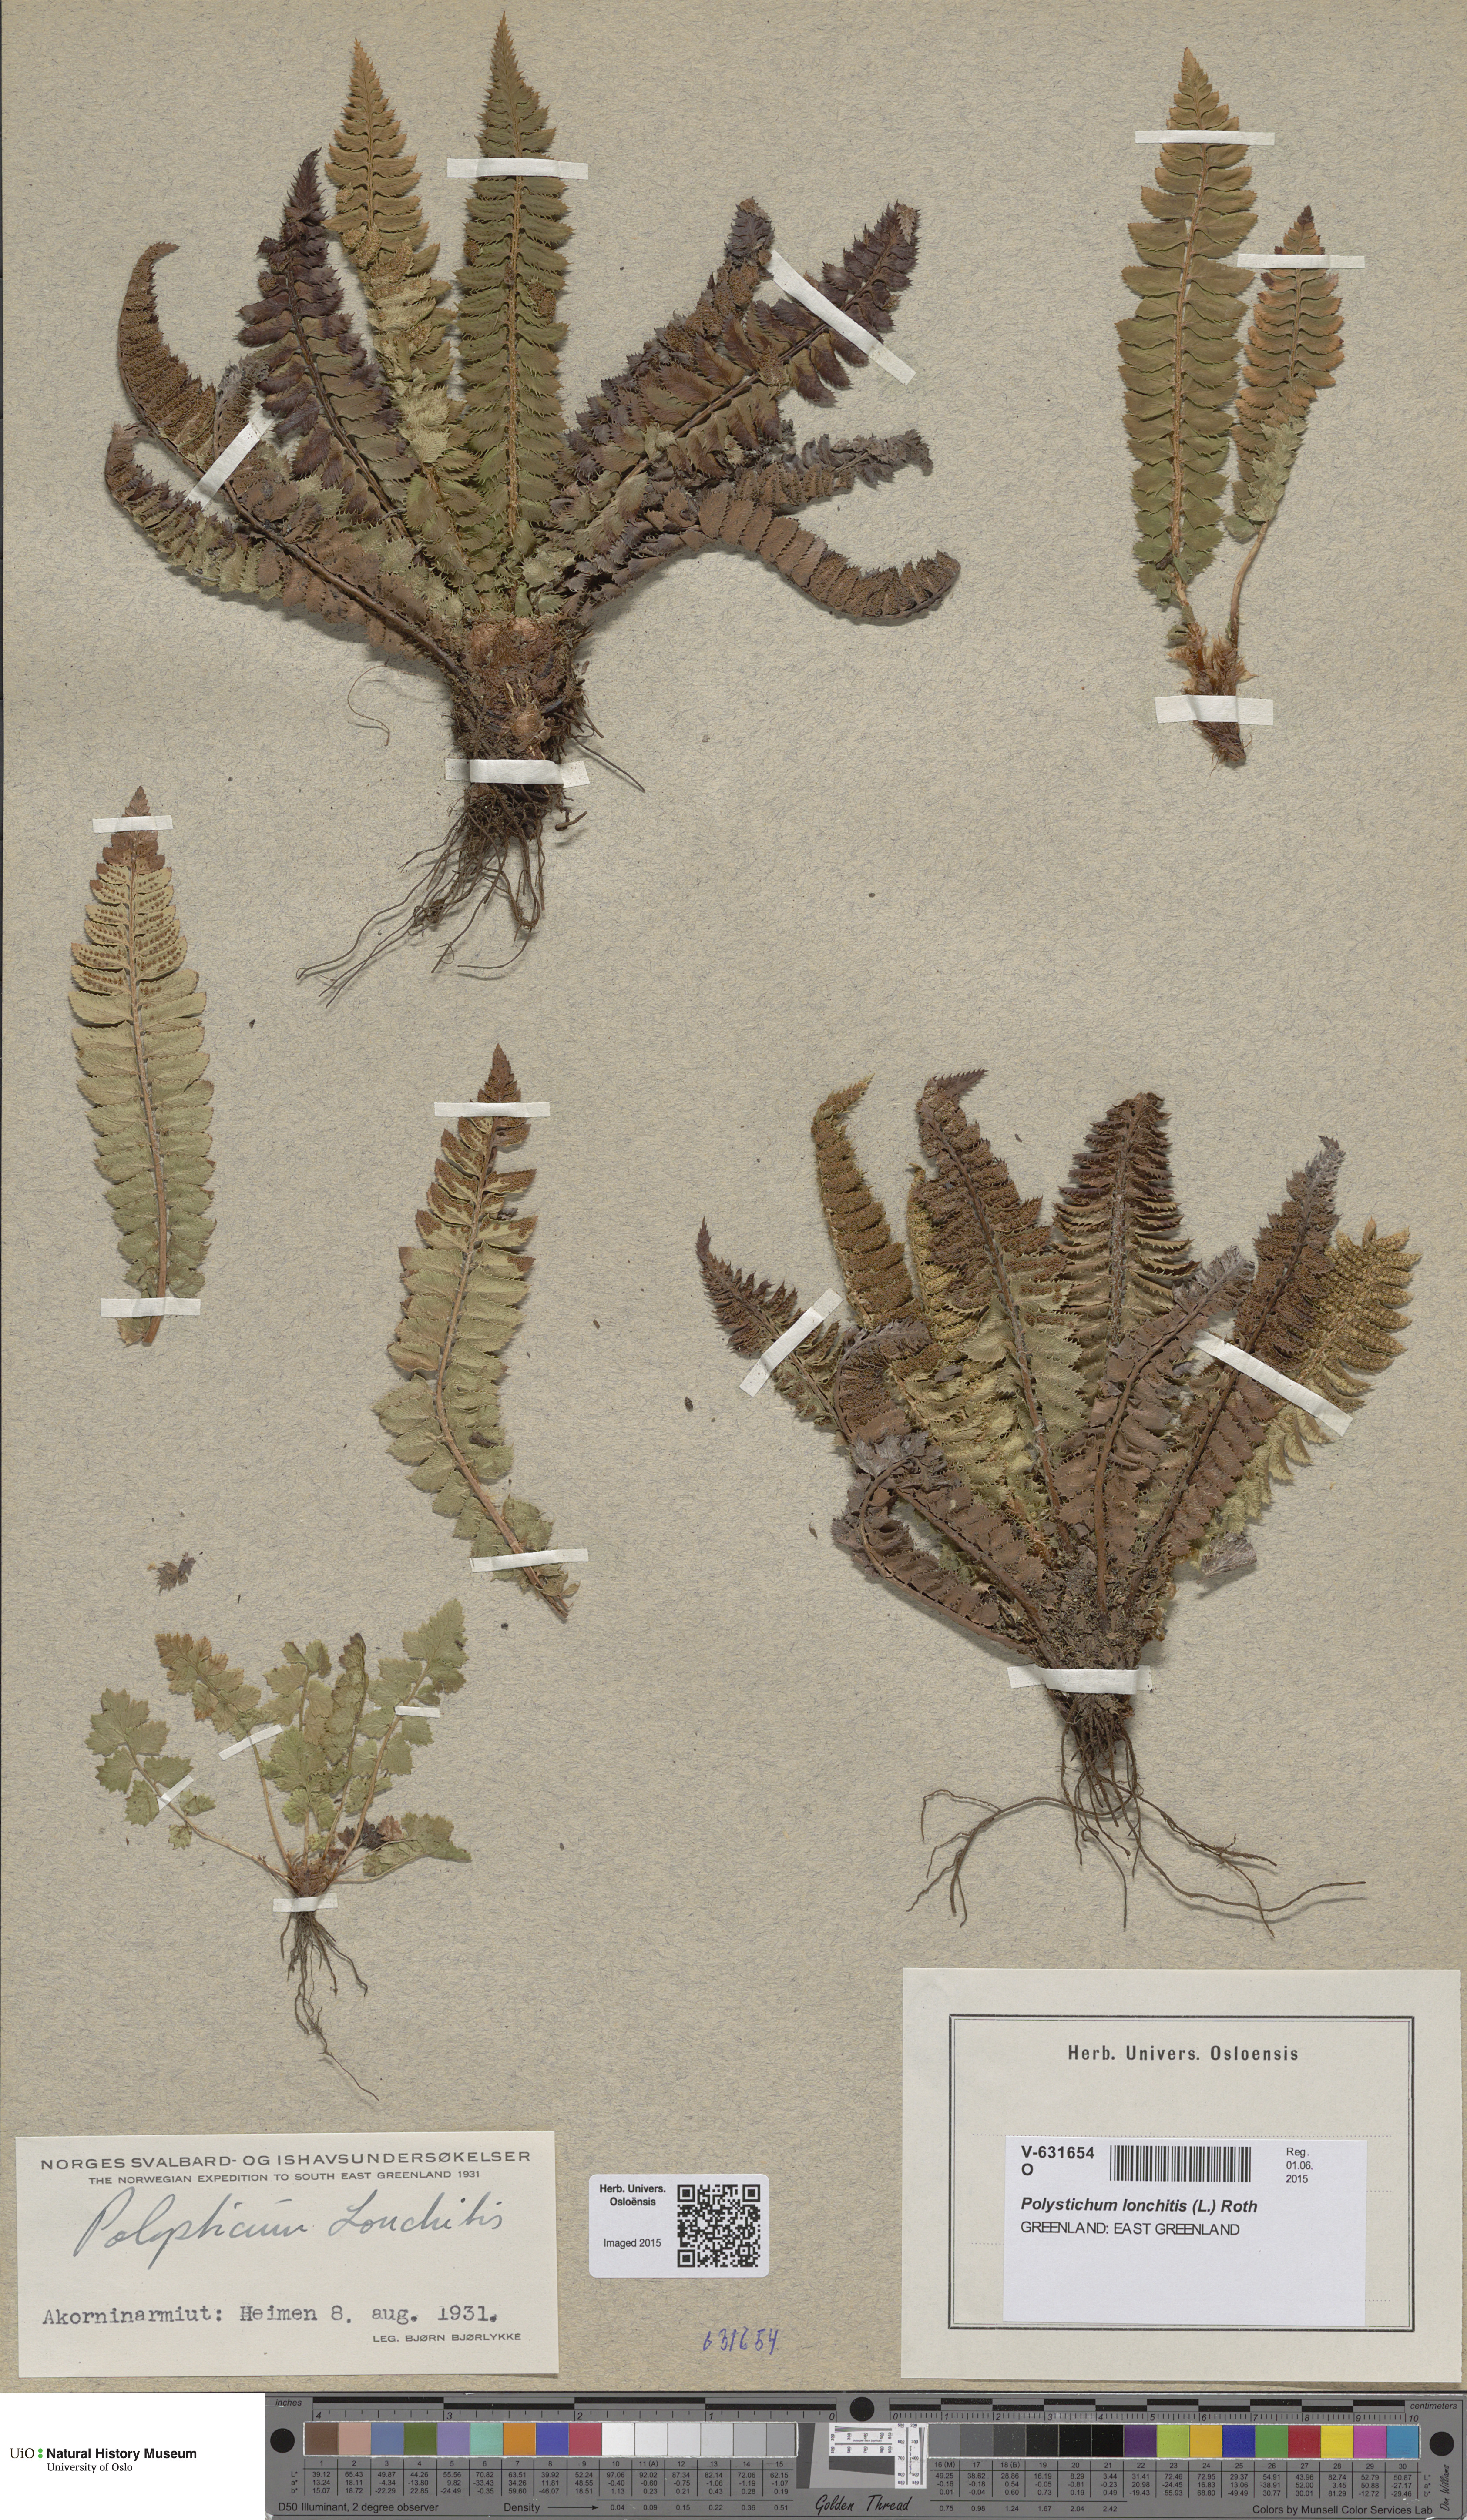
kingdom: Plantae
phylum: Tracheophyta
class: Polypodiopsida
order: Polypodiales
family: Dryopteridaceae
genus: Polystichum
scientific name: Polystichum lonchitis
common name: Holly fern
